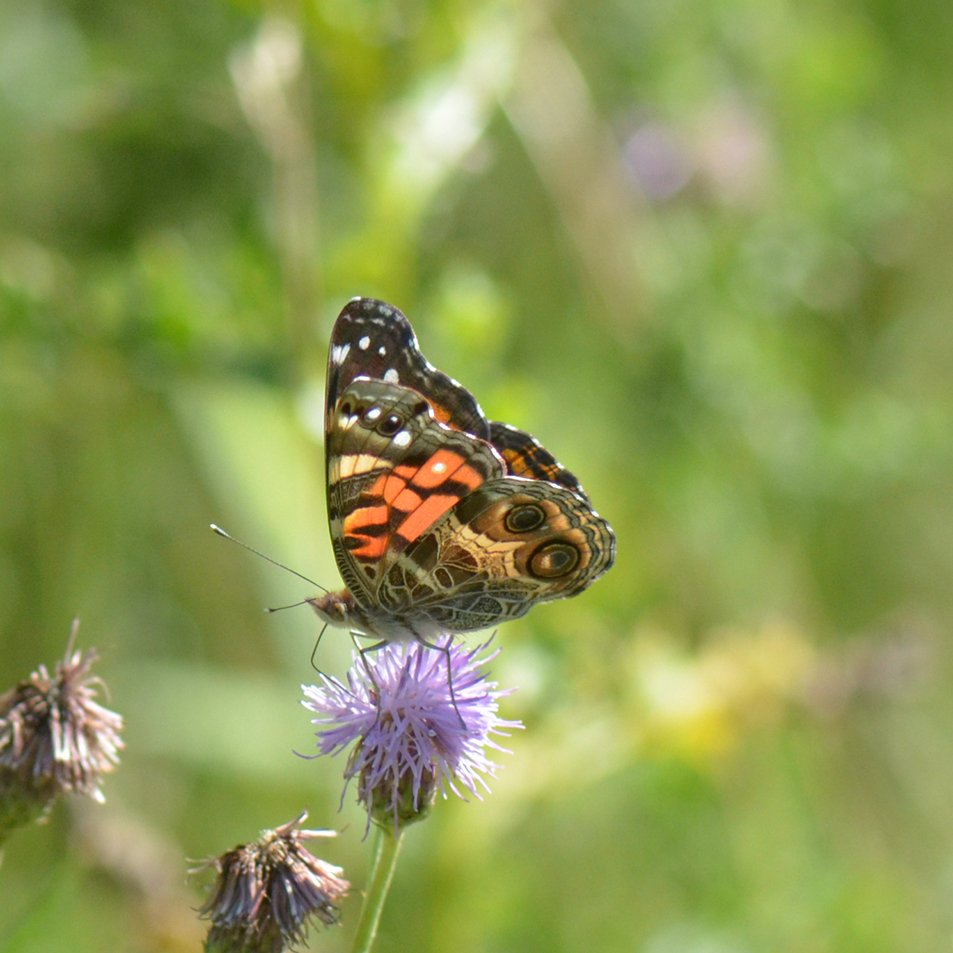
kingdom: Animalia
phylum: Arthropoda
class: Insecta
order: Lepidoptera
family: Nymphalidae
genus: Vanessa
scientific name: Vanessa virginiensis
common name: American Lady
